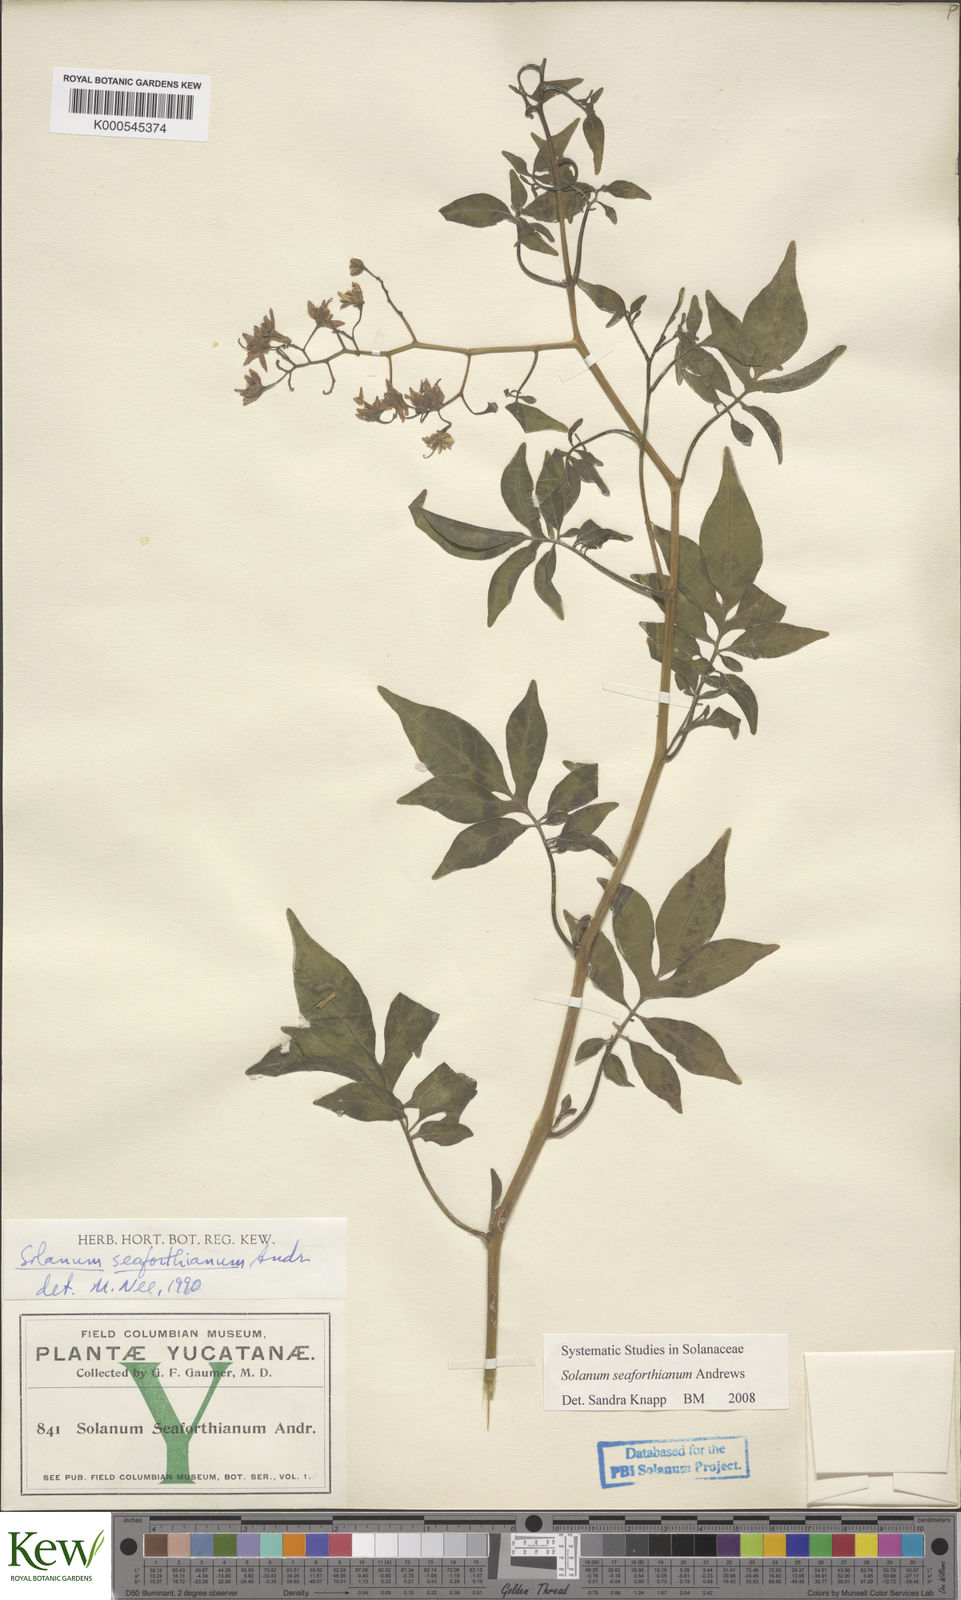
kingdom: Plantae
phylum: Tracheophyta
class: Magnoliopsida
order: Solanales
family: Solanaceae
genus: Solanum
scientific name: Solanum seaforthianum
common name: Brazilian nightshade
